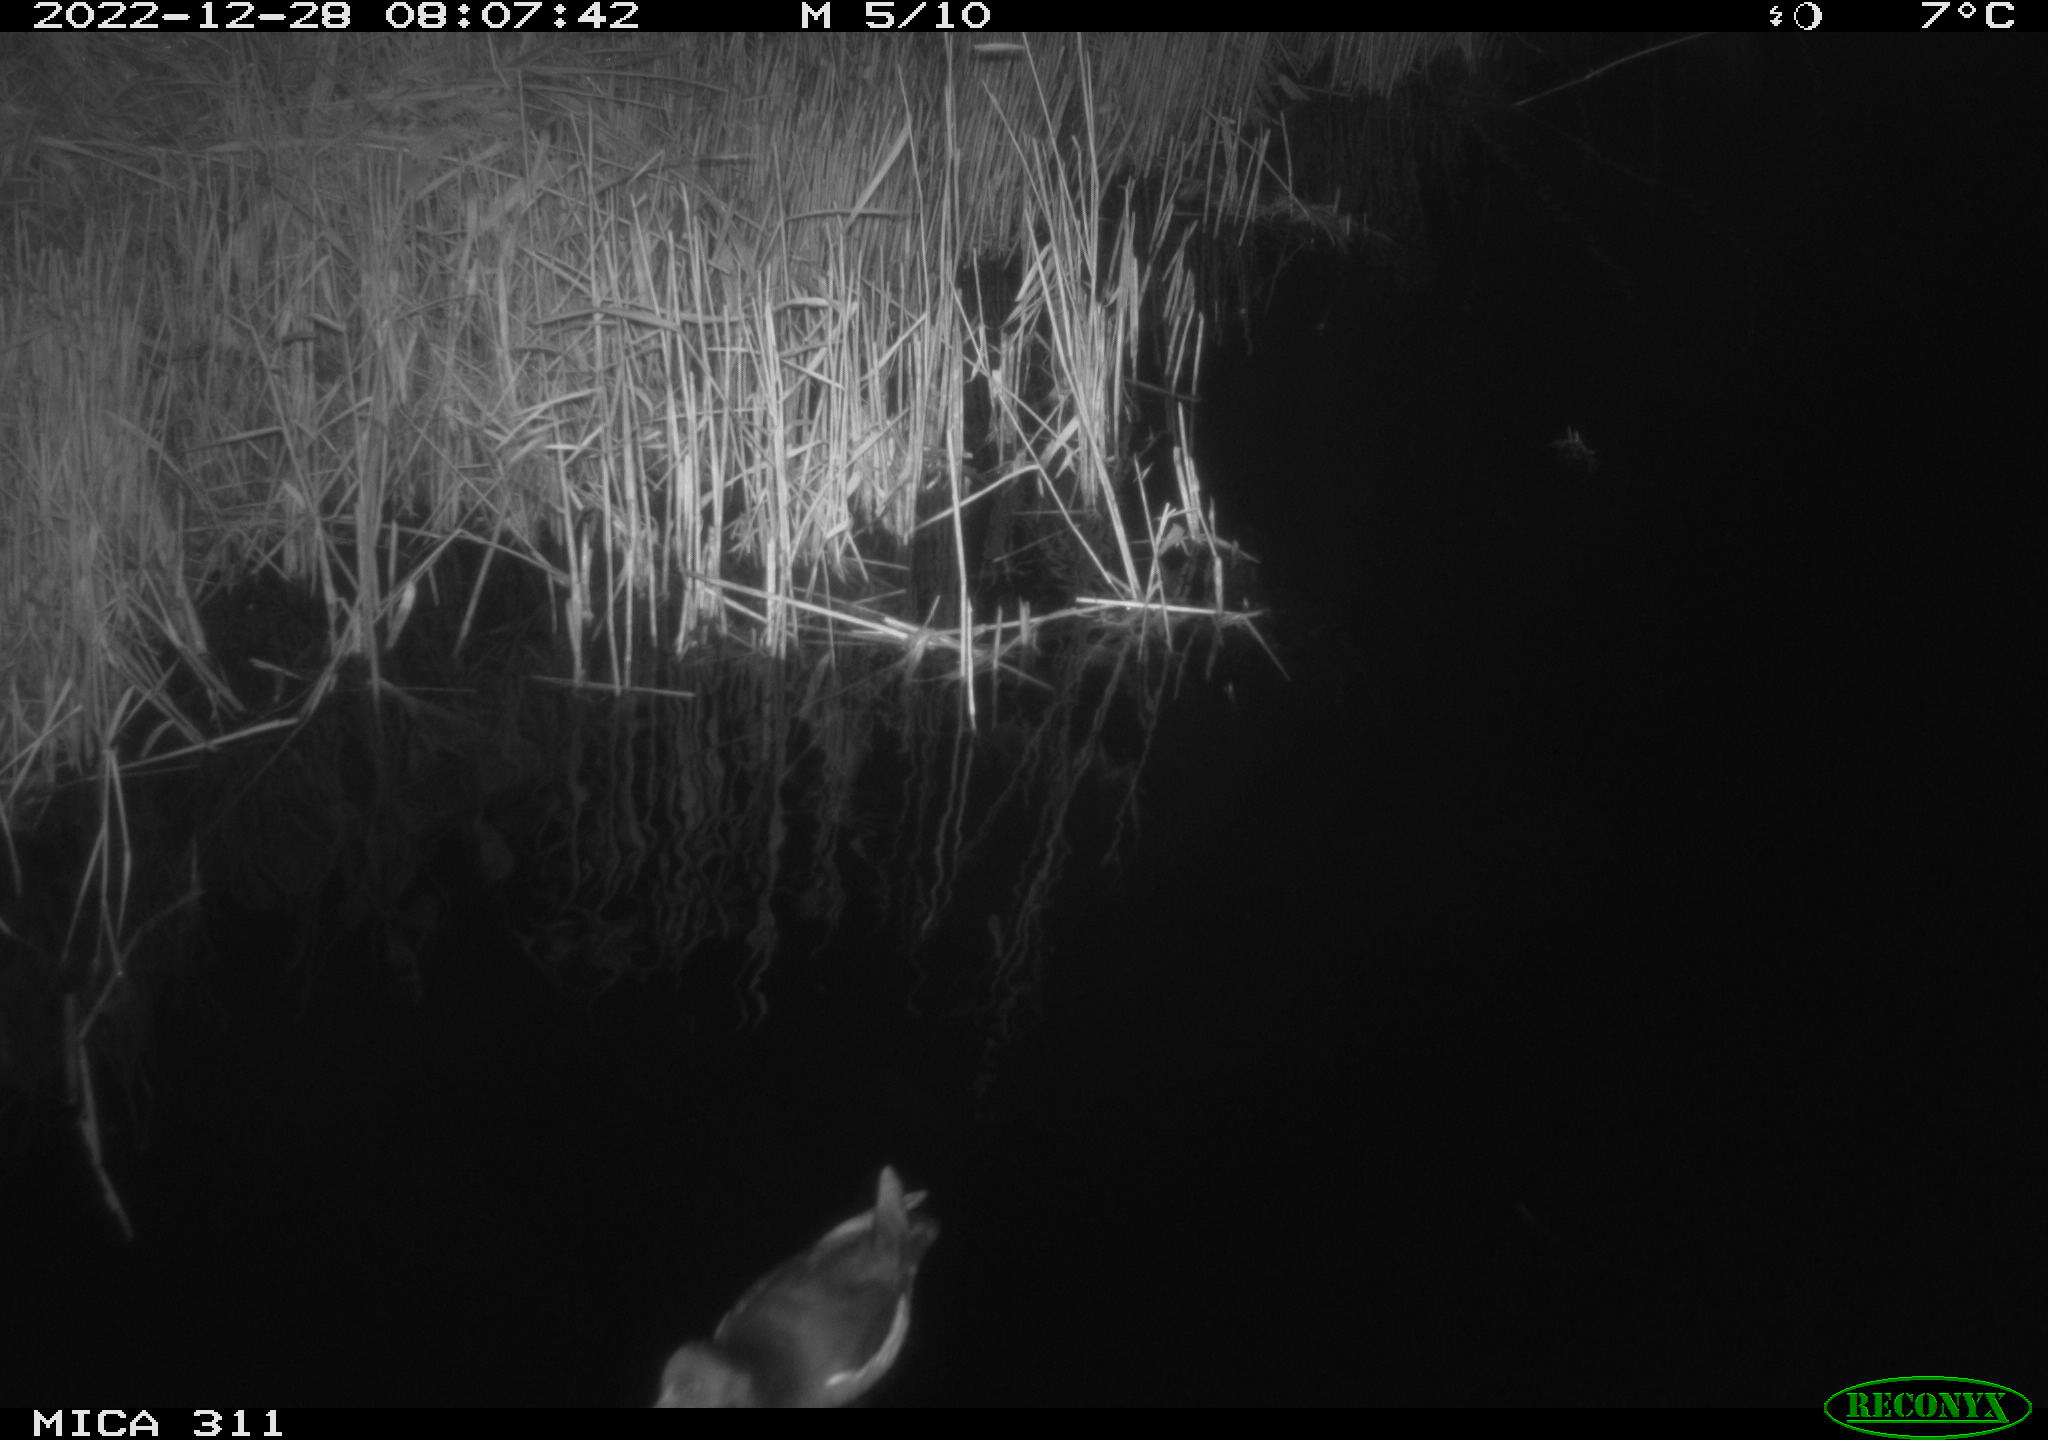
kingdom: Animalia
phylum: Chordata
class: Aves
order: Gruiformes
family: Rallidae
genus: Gallinula
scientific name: Gallinula chloropus
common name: Common moorhen
